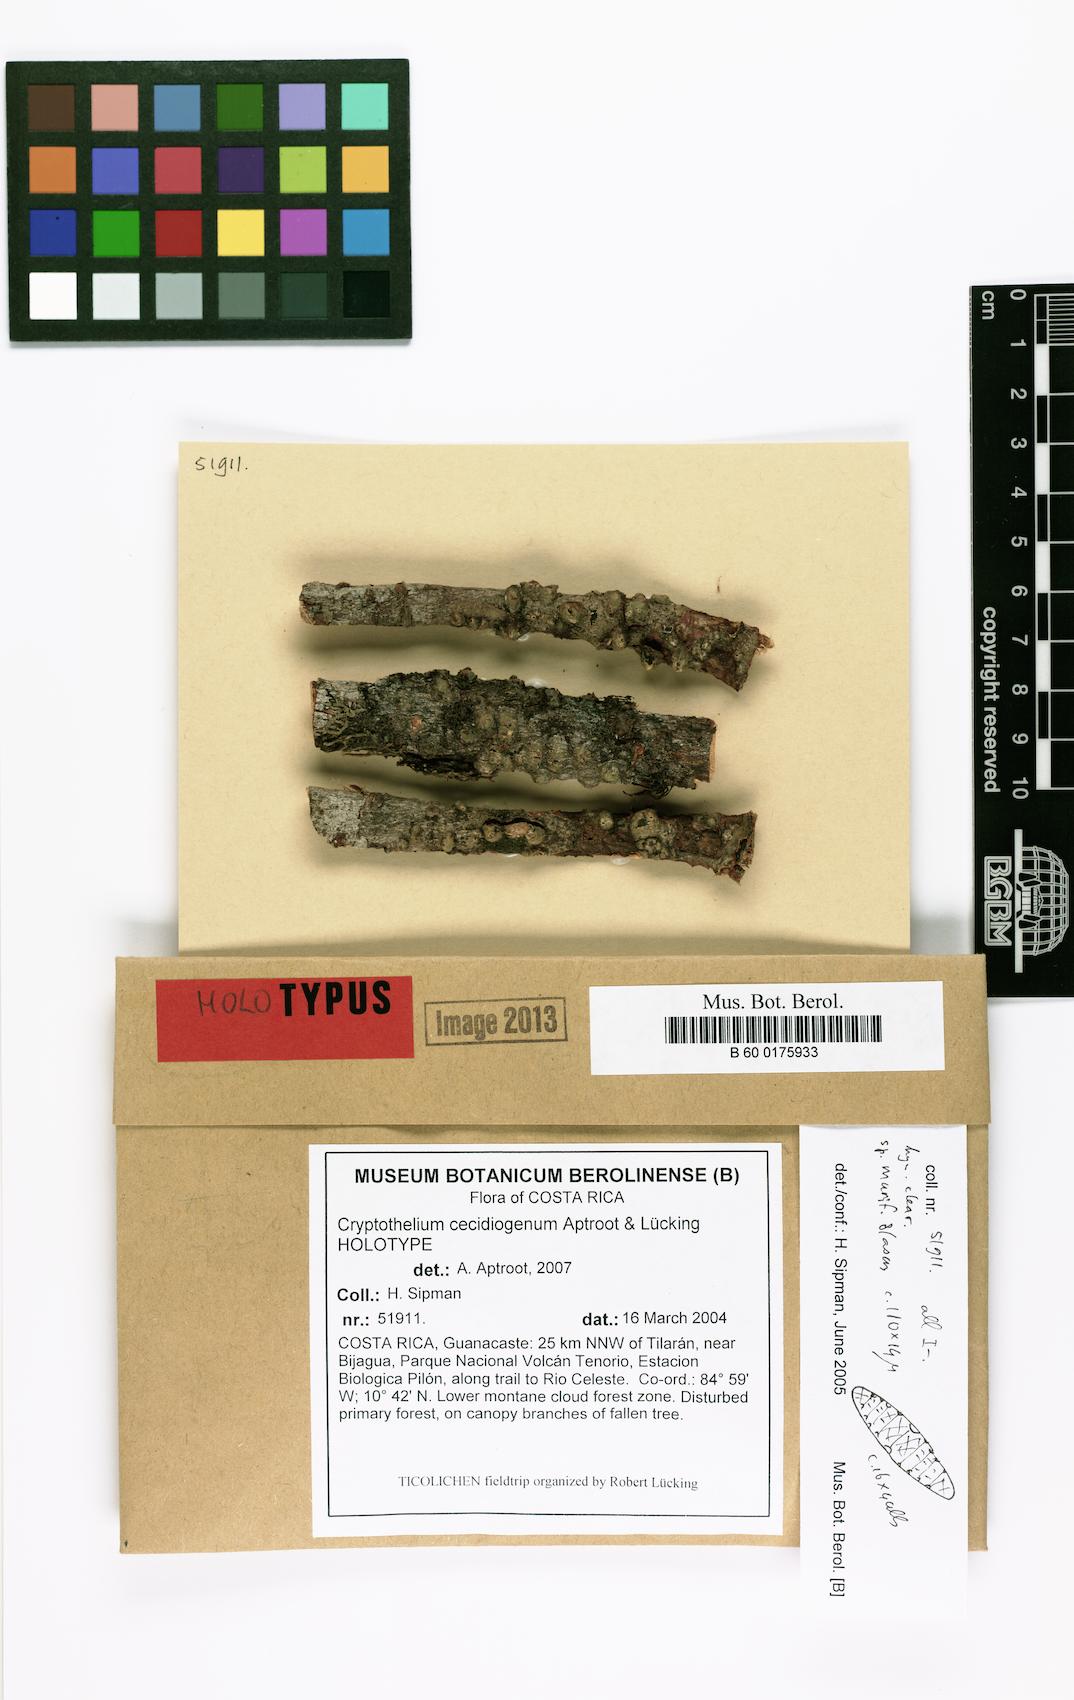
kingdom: Fungi
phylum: Ascomycota
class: Dothideomycetes
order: Trypetheliales
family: Trypetheliaceae
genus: Astrothelium
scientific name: Astrothelium cecidiogenum
